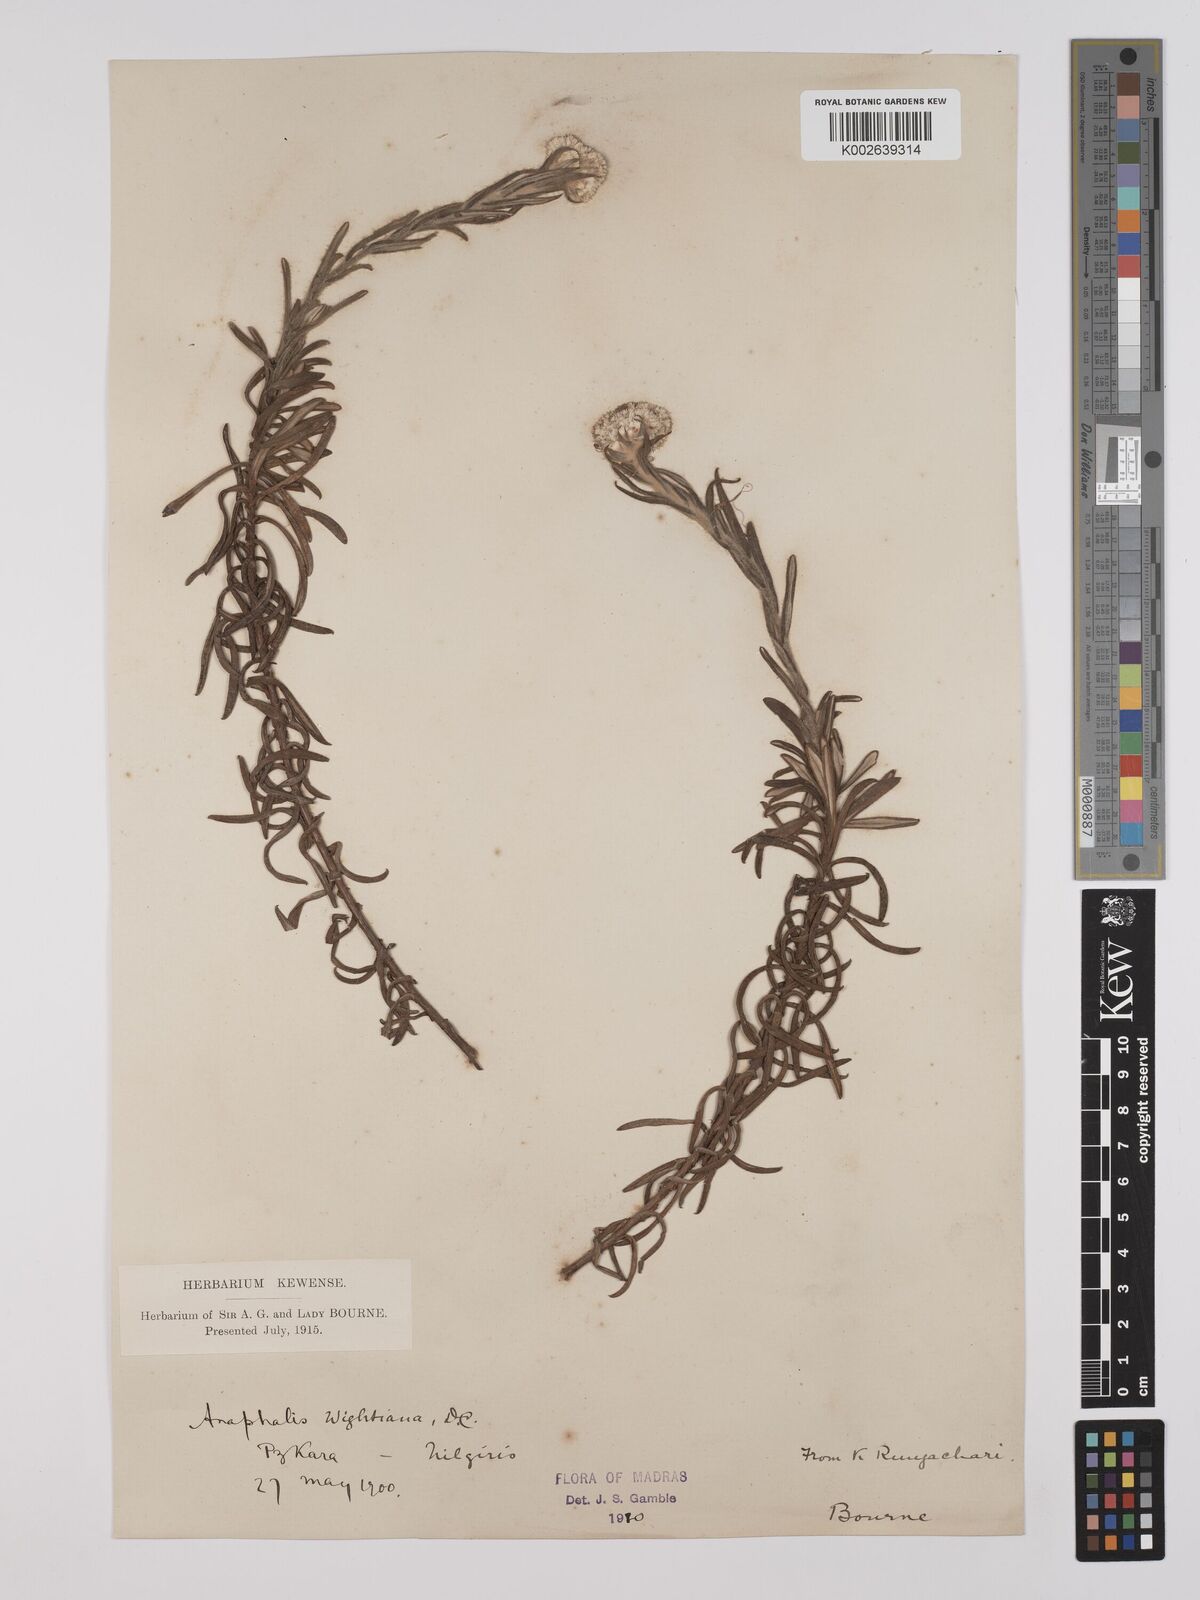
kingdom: Plantae
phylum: Tracheophyta
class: Magnoliopsida
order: Asterales
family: Asteraceae
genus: Anaphalis
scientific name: Anaphalis wightiana
